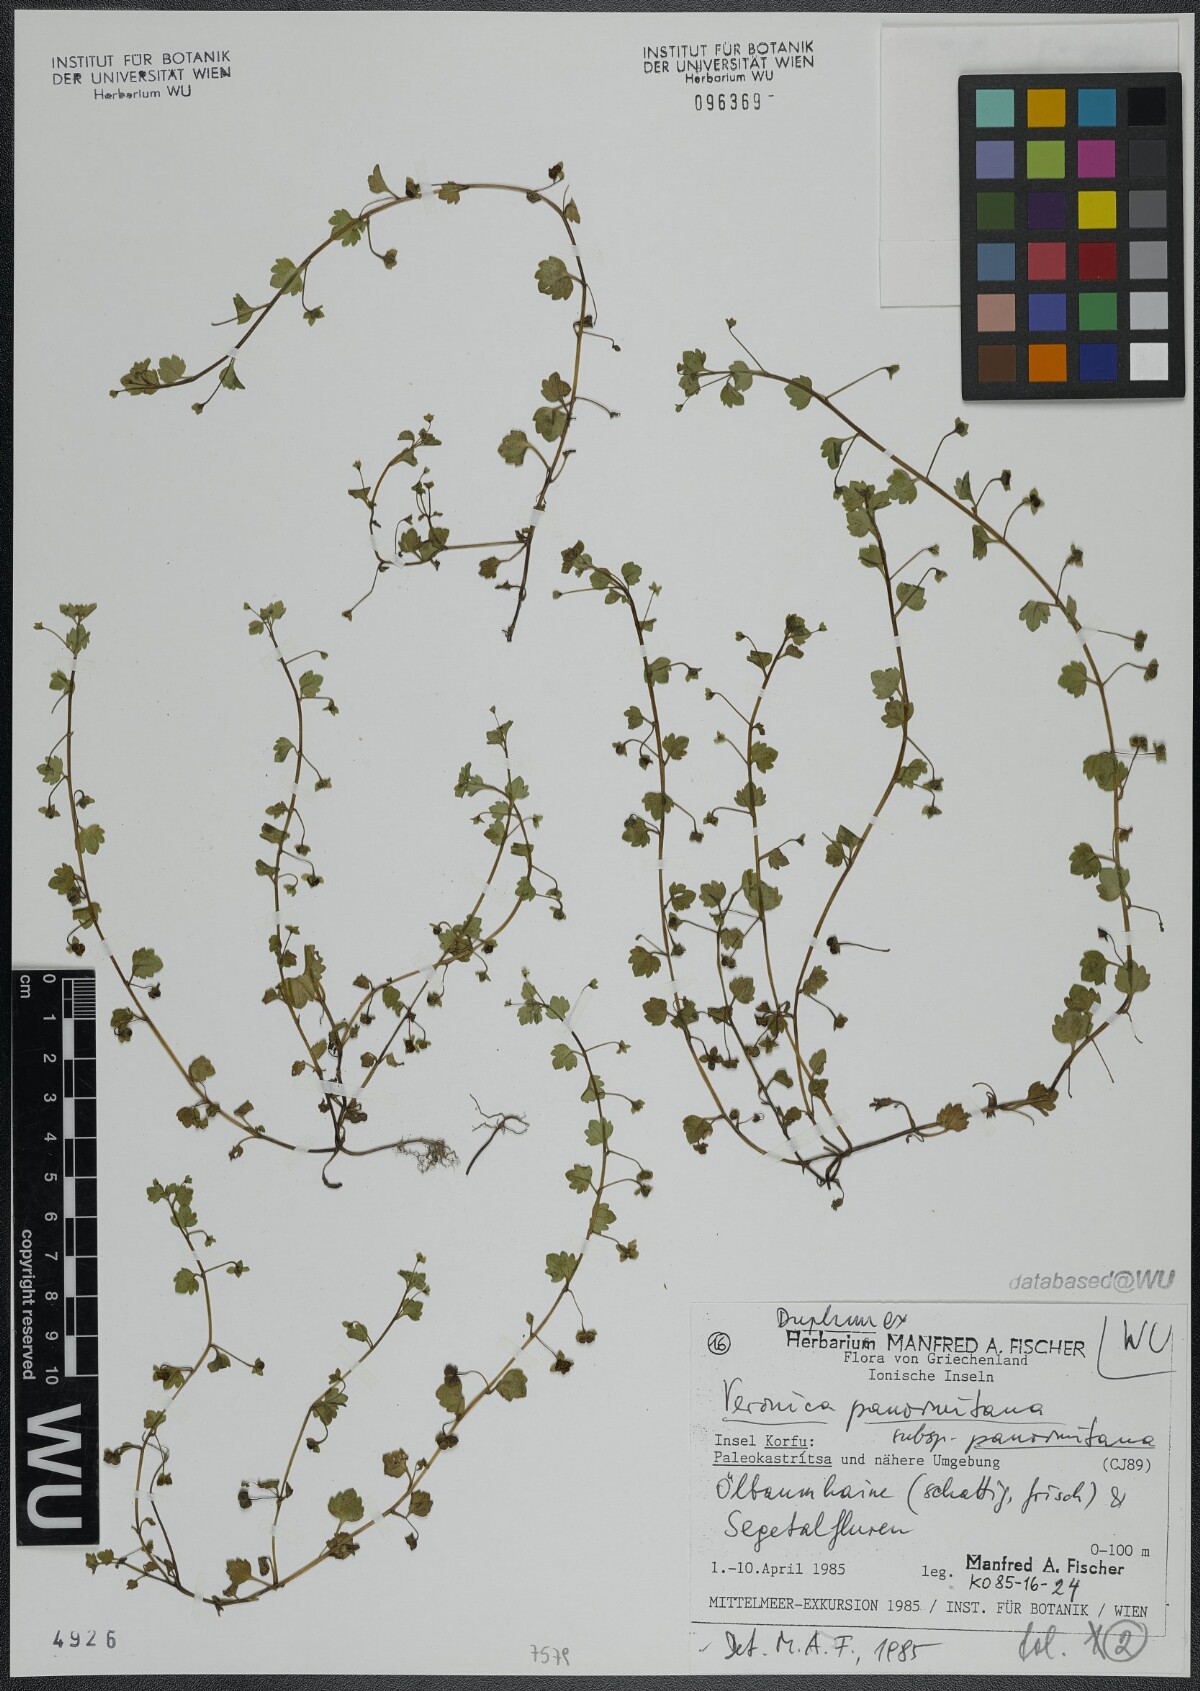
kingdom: Plantae
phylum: Tracheophyta
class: Magnoliopsida
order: Lamiales
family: Plantaginaceae
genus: Veronica
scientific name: Veronica panormitana
